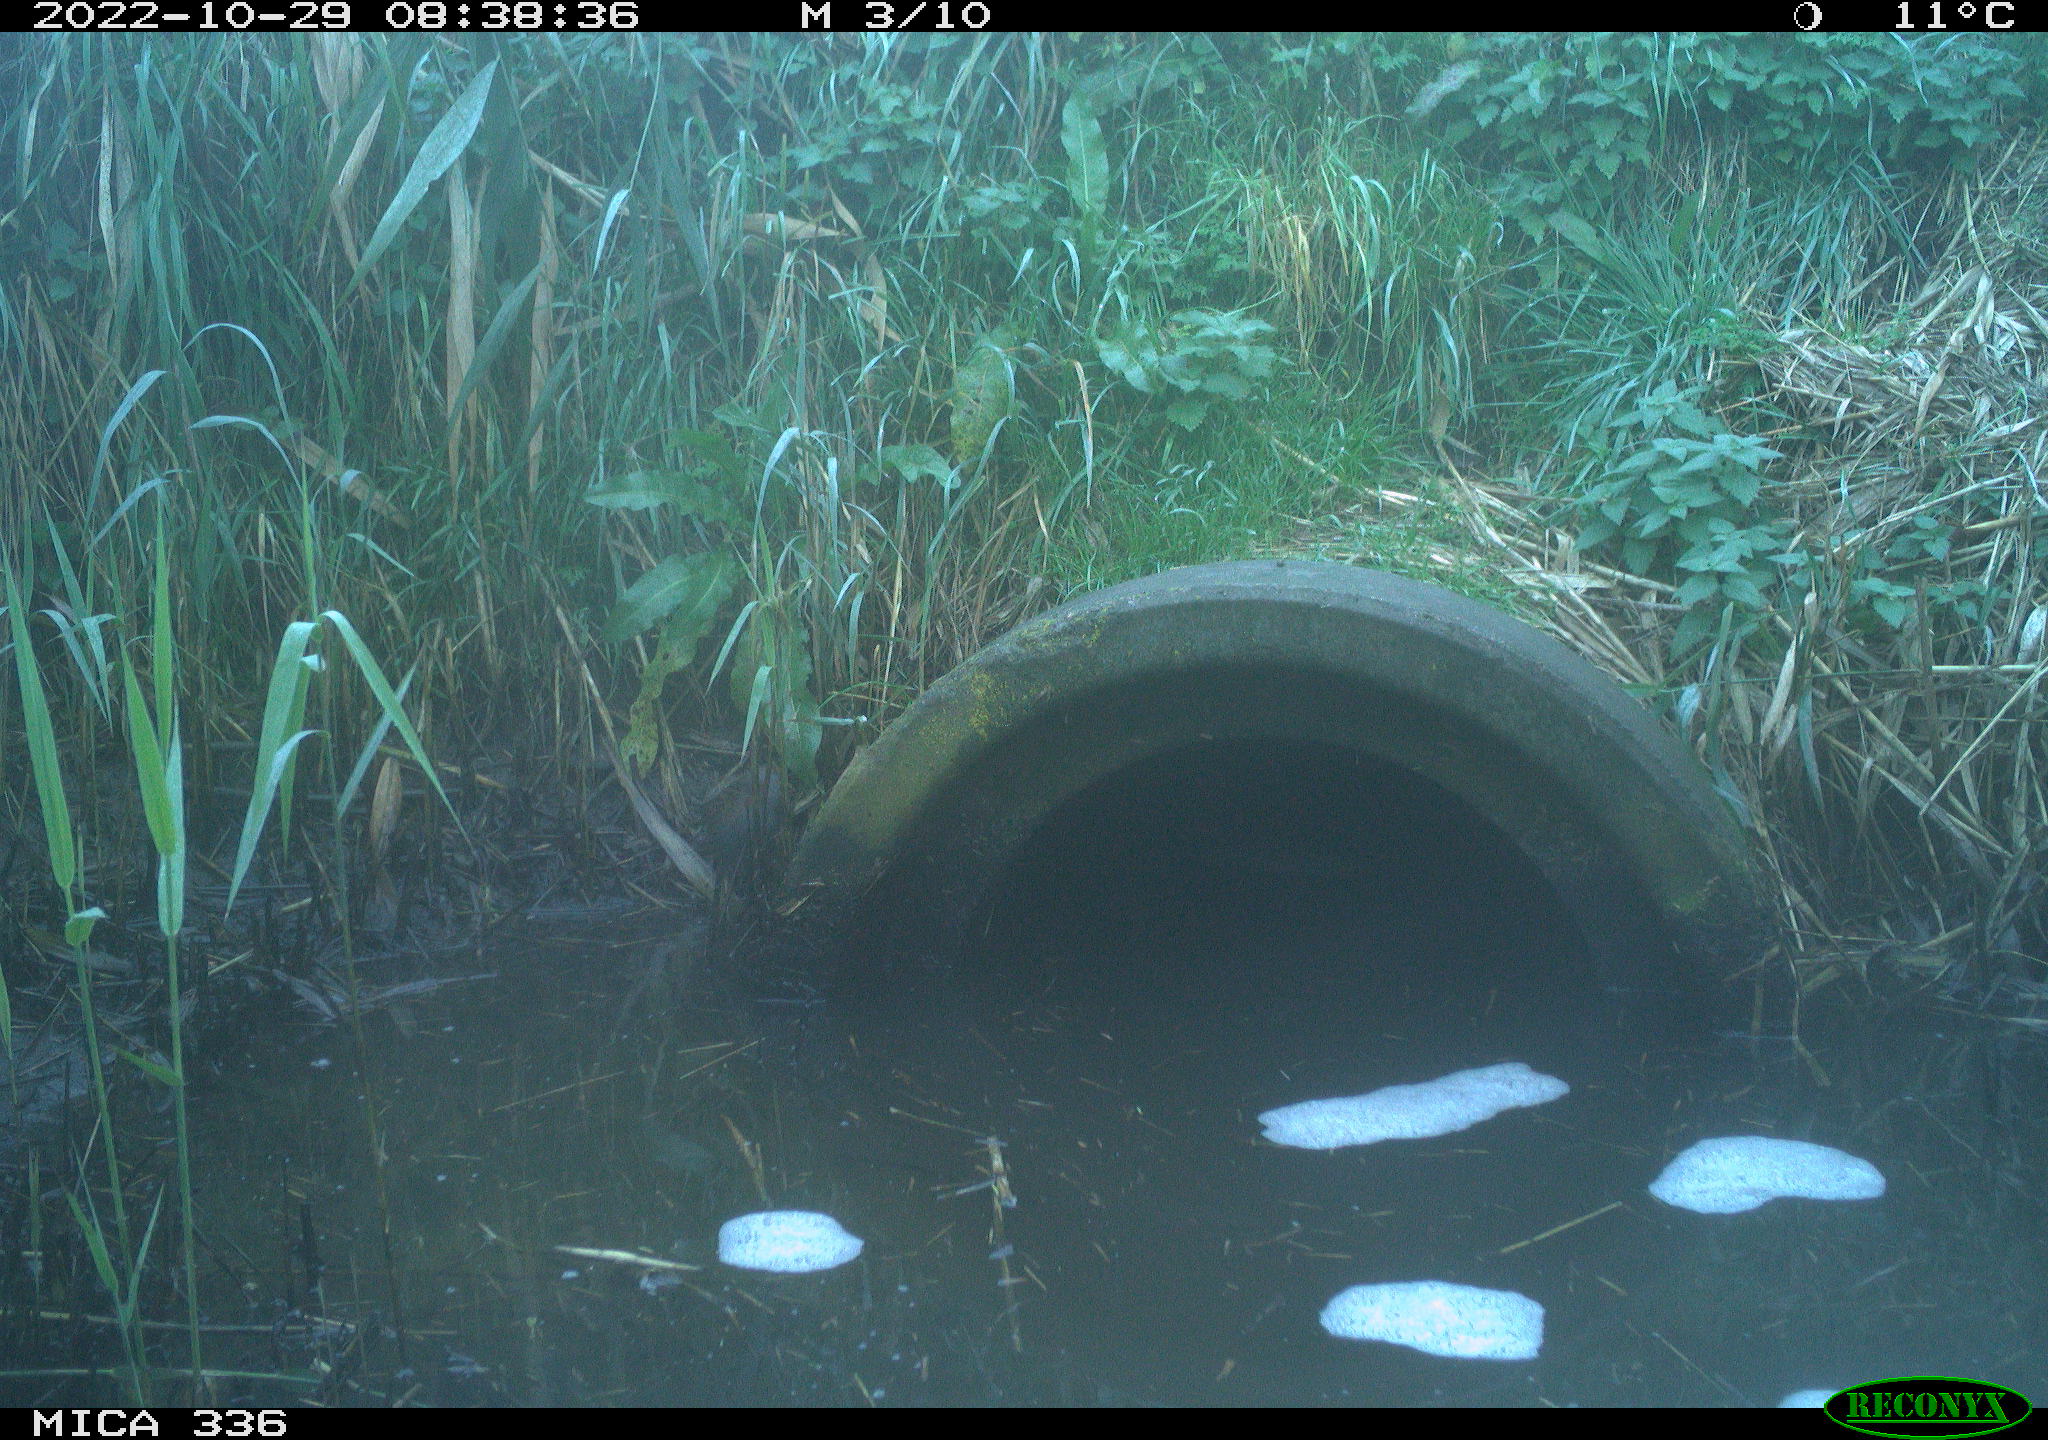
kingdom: Animalia
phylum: Chordata
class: Aves
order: Gruiformes
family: Rallidae
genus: Rallus
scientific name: Rallus aquaticus
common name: Water rail
